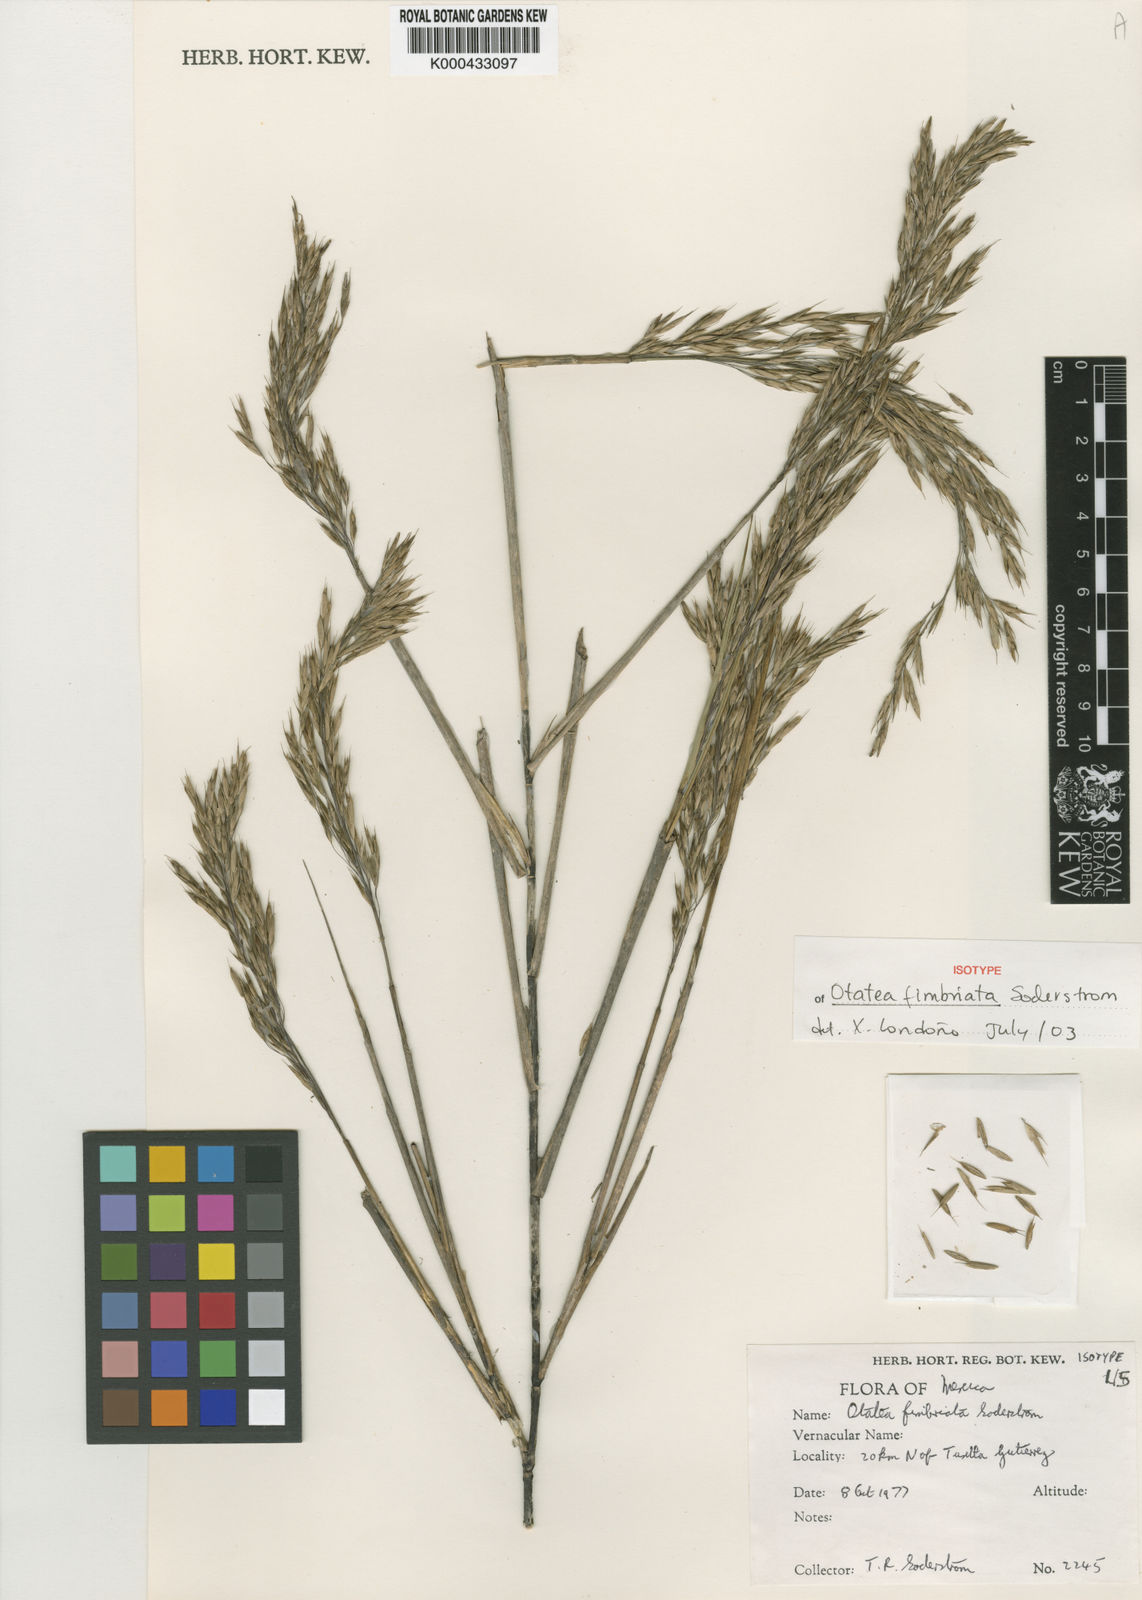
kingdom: Plantae
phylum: Tracheophyta
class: Liliopsida
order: Poales
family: Poaceae
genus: Otatea
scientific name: Otatea fimbriata
